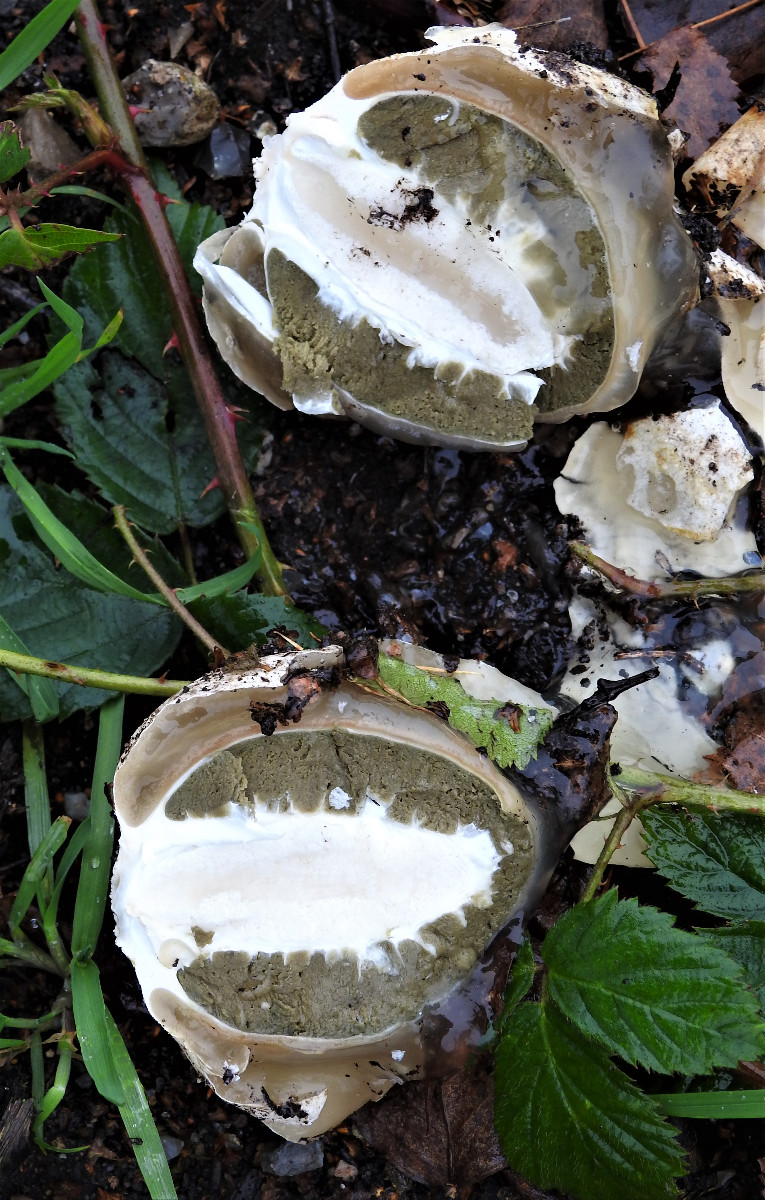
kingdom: Fungi
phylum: Basidiomycota
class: Agaricomycetes
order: Phallales
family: Phallaceae
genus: Phallus
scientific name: Phallus impudicus
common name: almindelig stinksvamp
